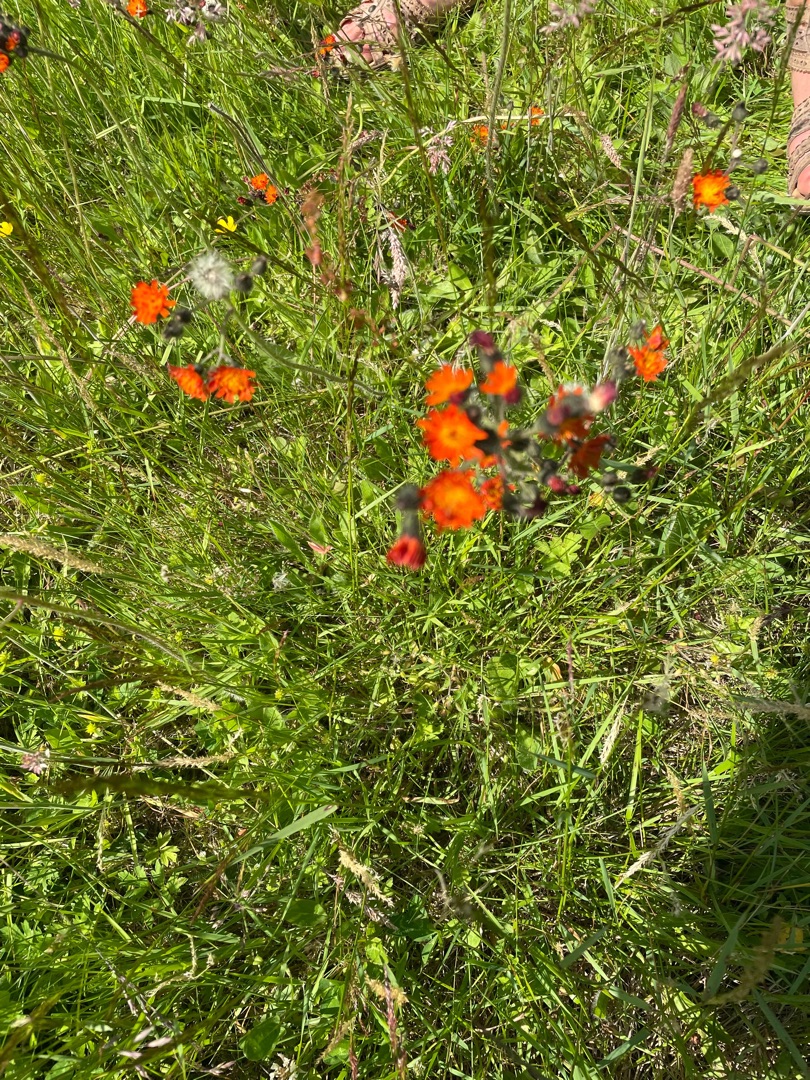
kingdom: Plantae
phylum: Tracheophyta
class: Magnoliopsida
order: Asterales
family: Asteraceae
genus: Pilosella
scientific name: Pilosella aurantiaca
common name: Pomerans-høgeurt
